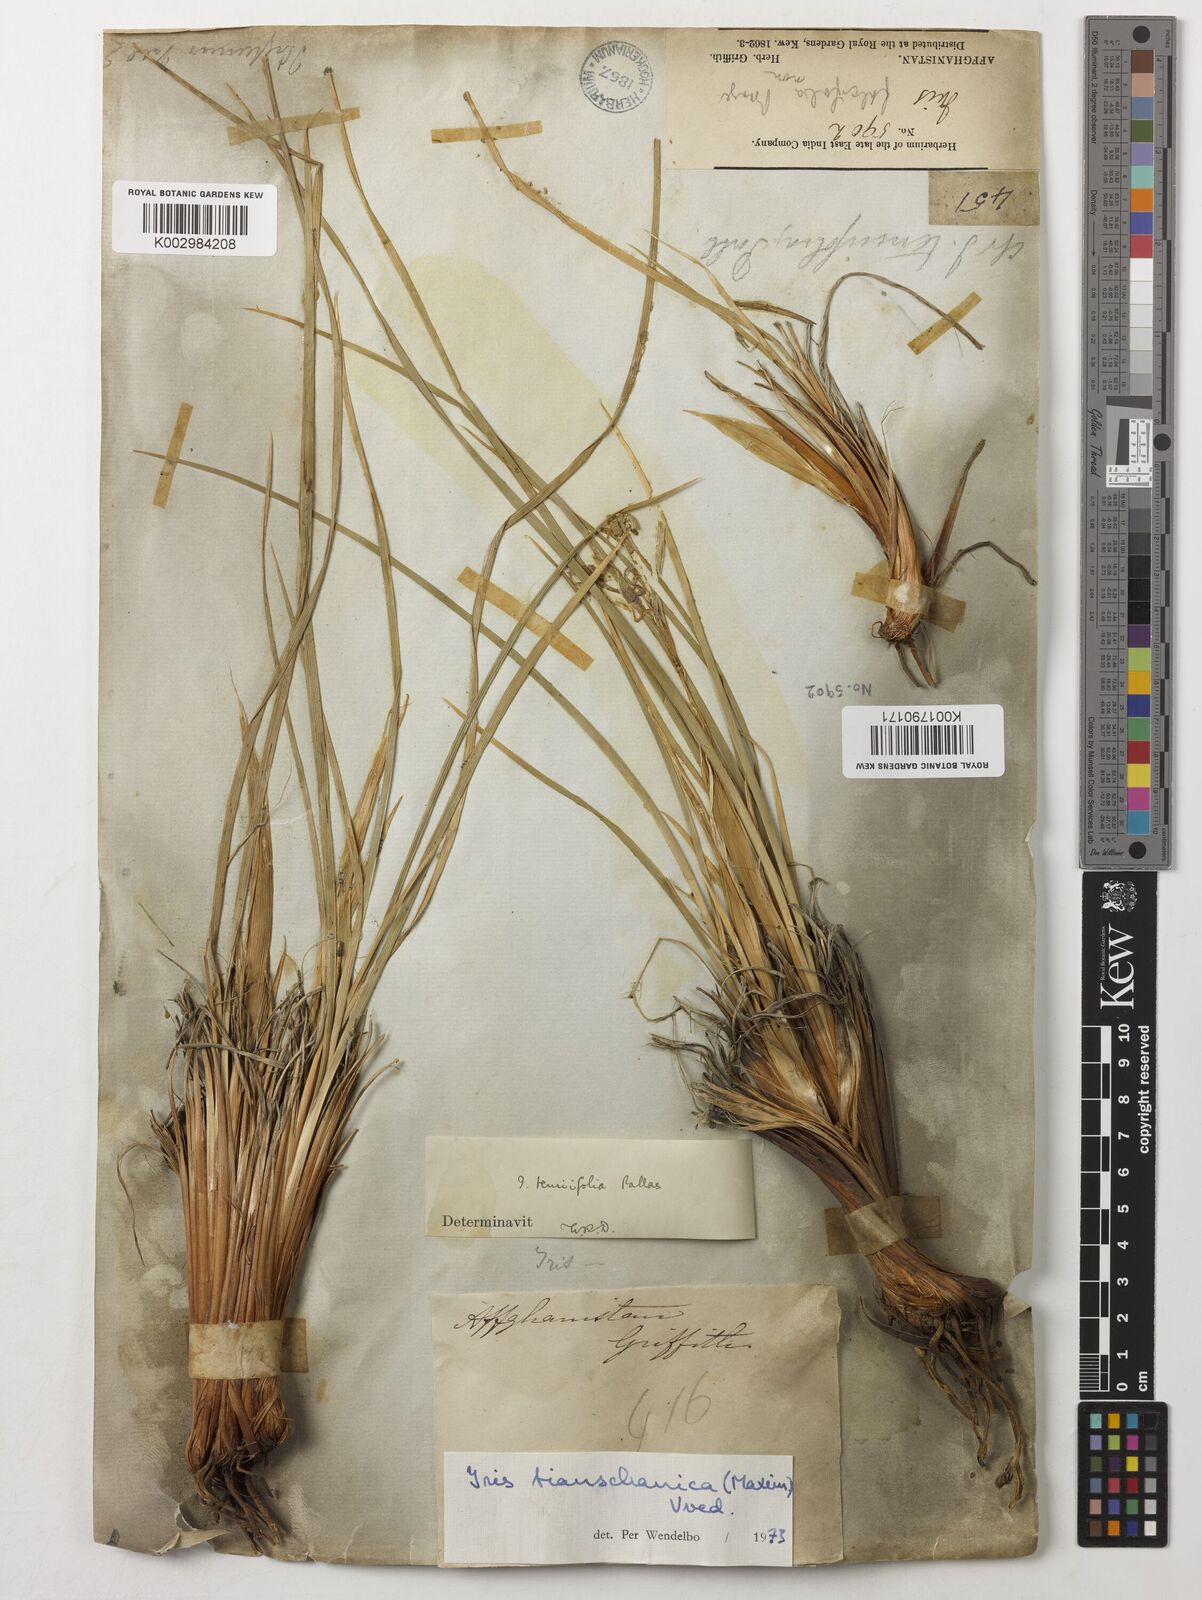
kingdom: Plantae
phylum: Tracheophyta
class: Liliopsida
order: Asparagales
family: Iridaceae
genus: Iris
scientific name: Iris
